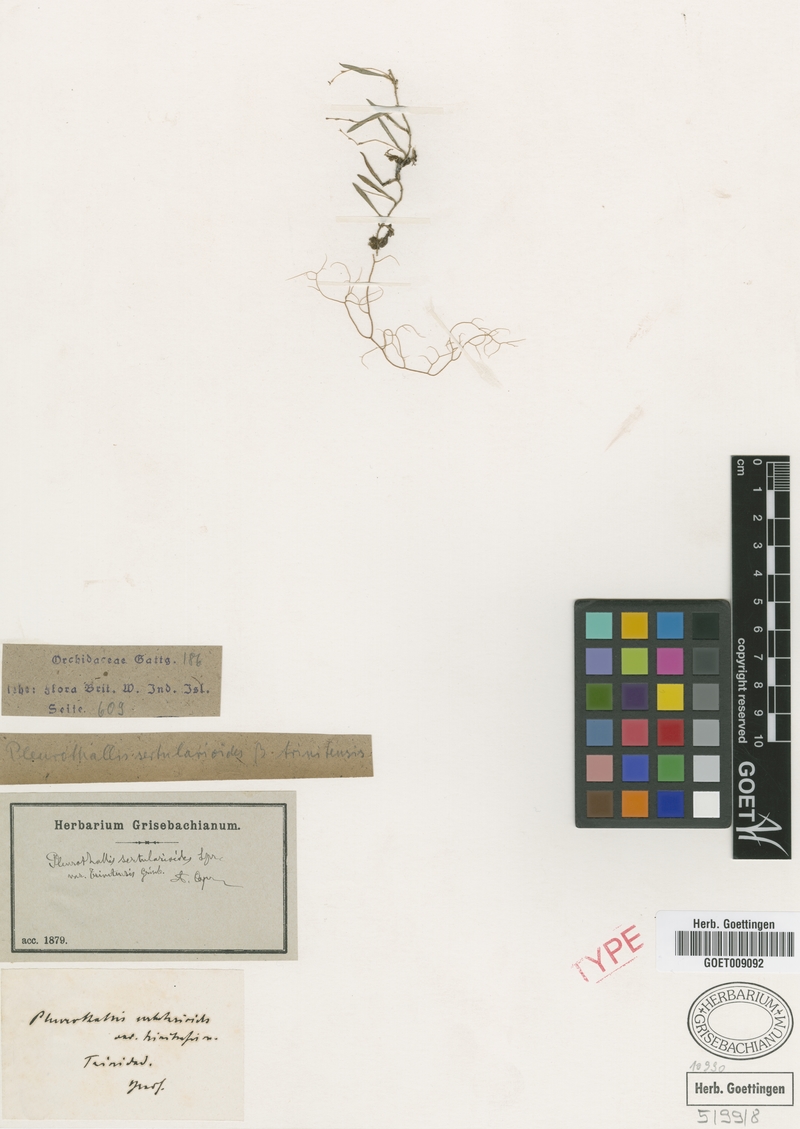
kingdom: Plantae
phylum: Tracheophyta
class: Liliopsida
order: Asparagales
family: Orchidaceae
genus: Madisonia
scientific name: Madisonia spiculifera
